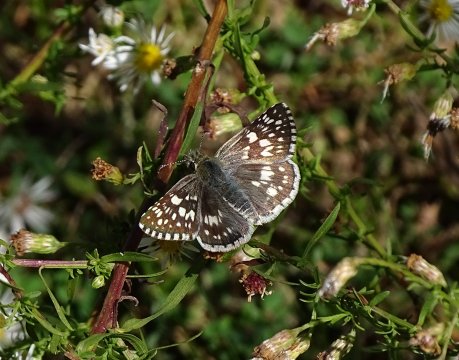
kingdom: Animalia
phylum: Arthropoda
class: Insecta
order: Lepidoptera
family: Hesperiidae
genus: Pyrgus
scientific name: Pyrgus communis
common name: Common Checkered-Skipper
